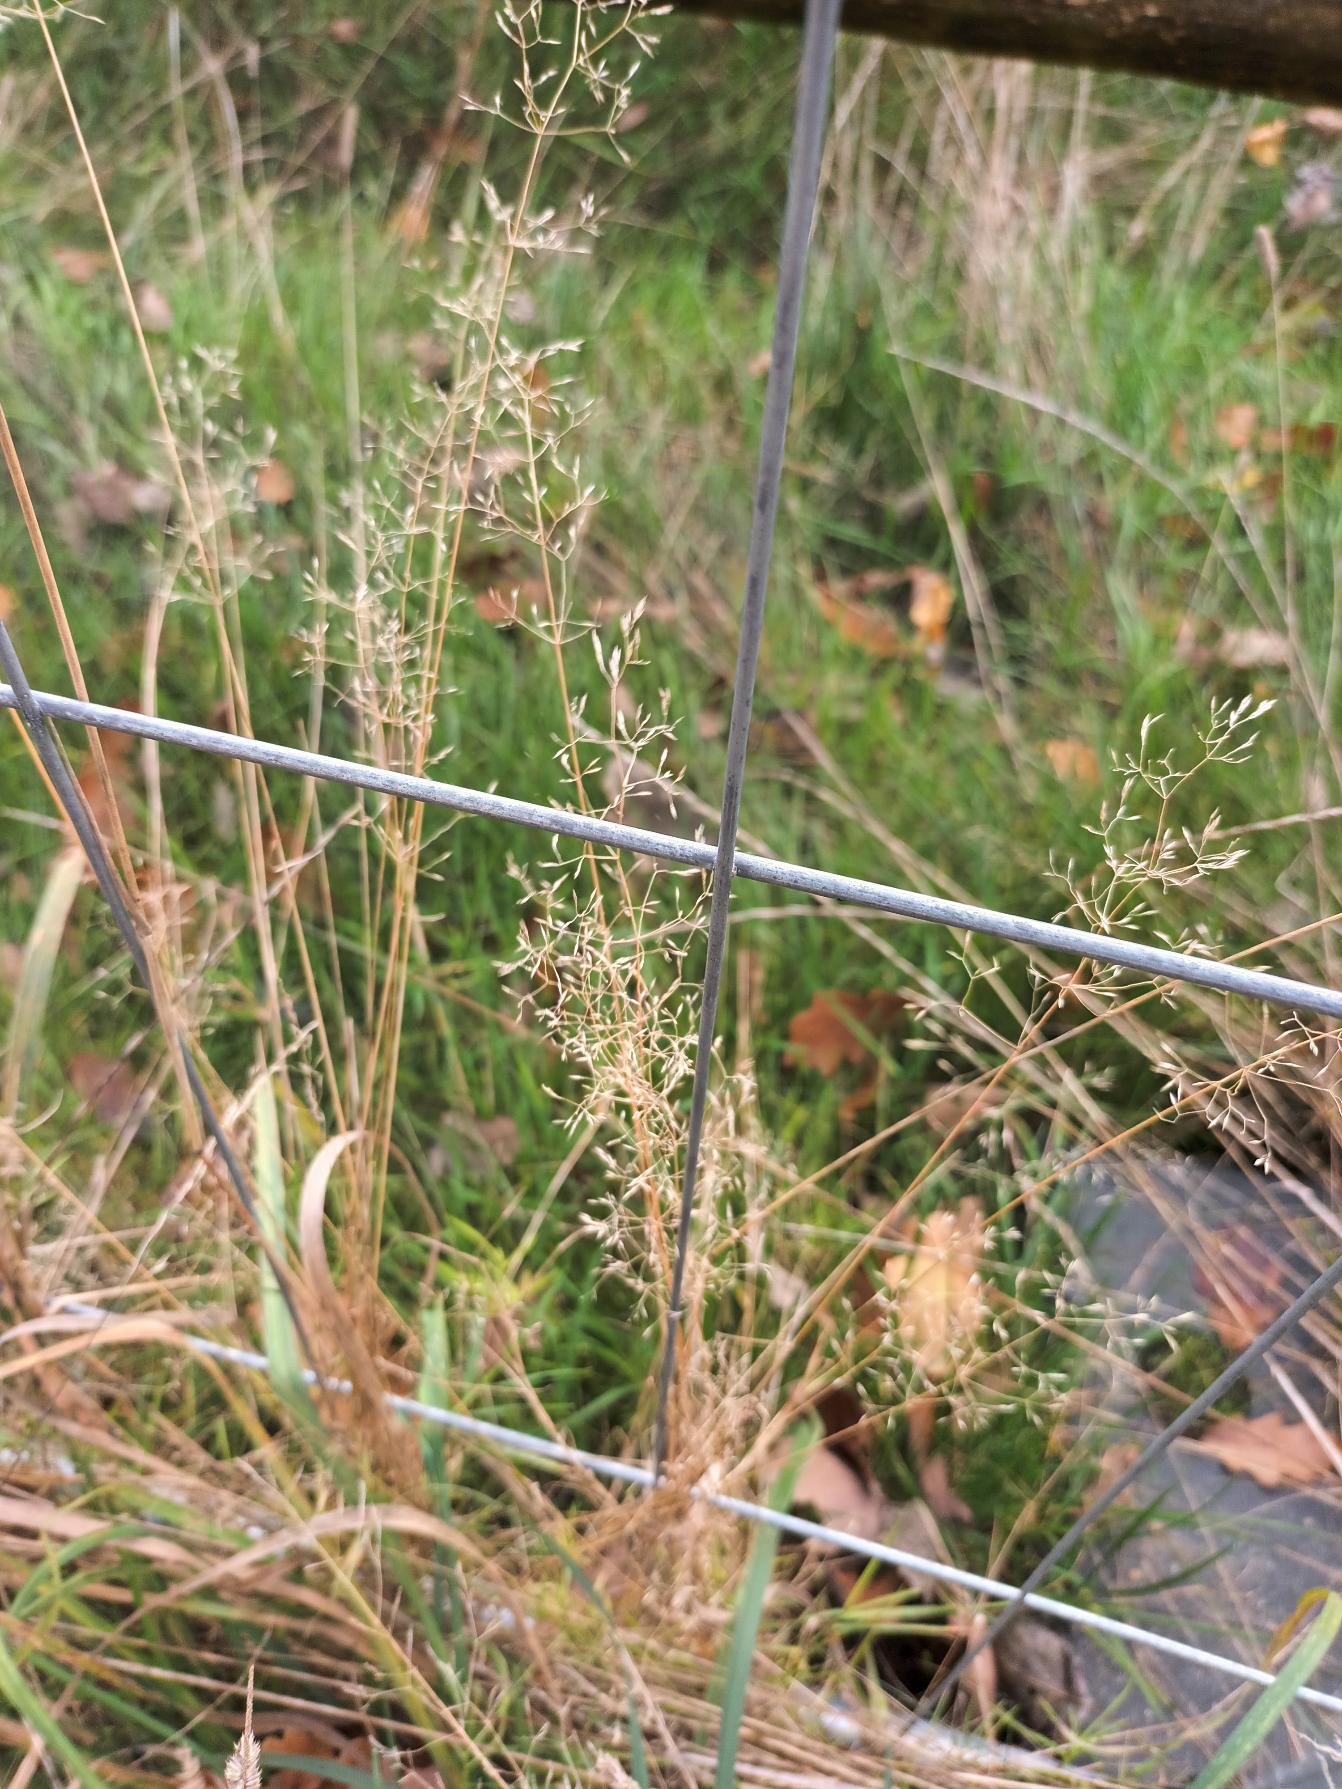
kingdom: Plantae
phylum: Tracheophyta
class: Liliopsida
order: Poales
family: Poaceae
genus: Agrostis
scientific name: Agrostis capillaris
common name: Almindelig hvene
